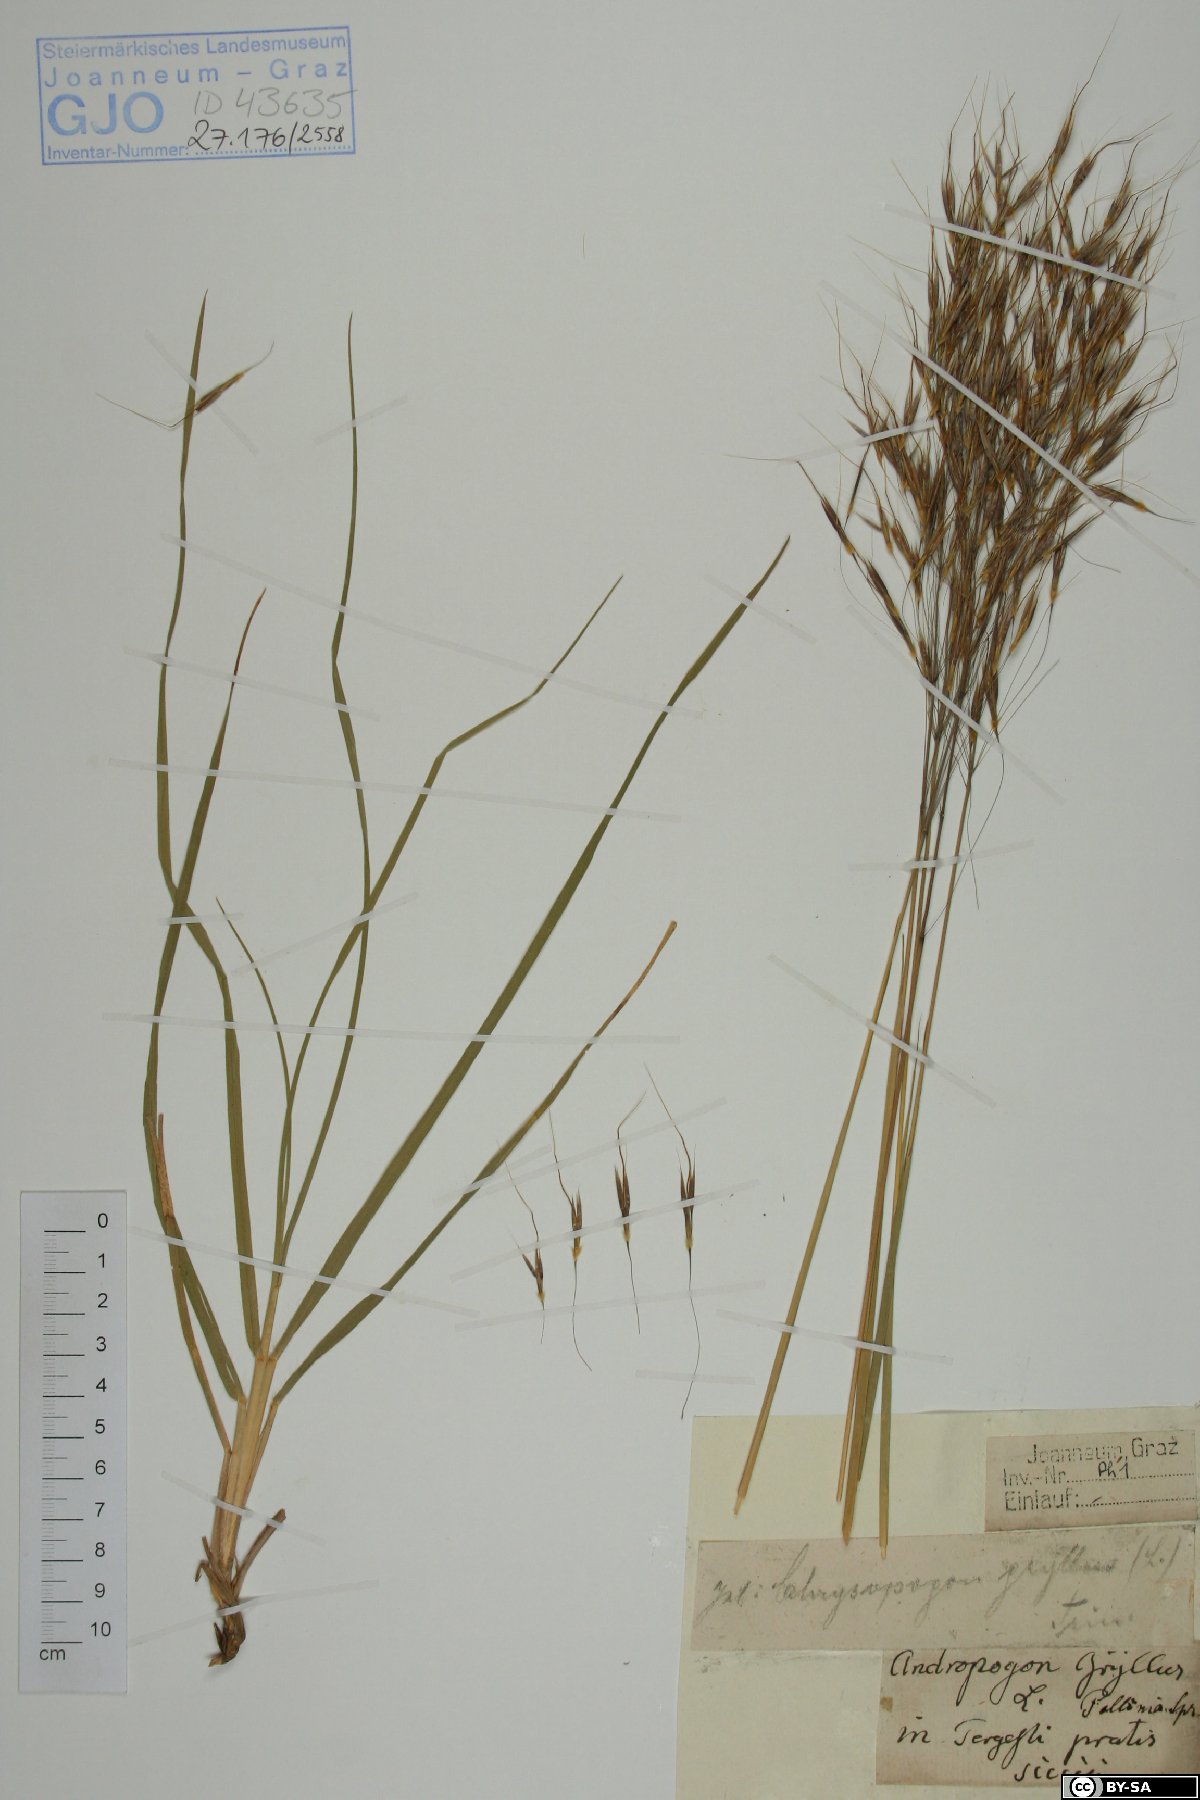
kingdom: Plantae
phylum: Tracheophyta
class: Liliopsida
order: Poales
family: Poaceae
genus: Chrysopogon
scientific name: Chrysopogon gryllus
